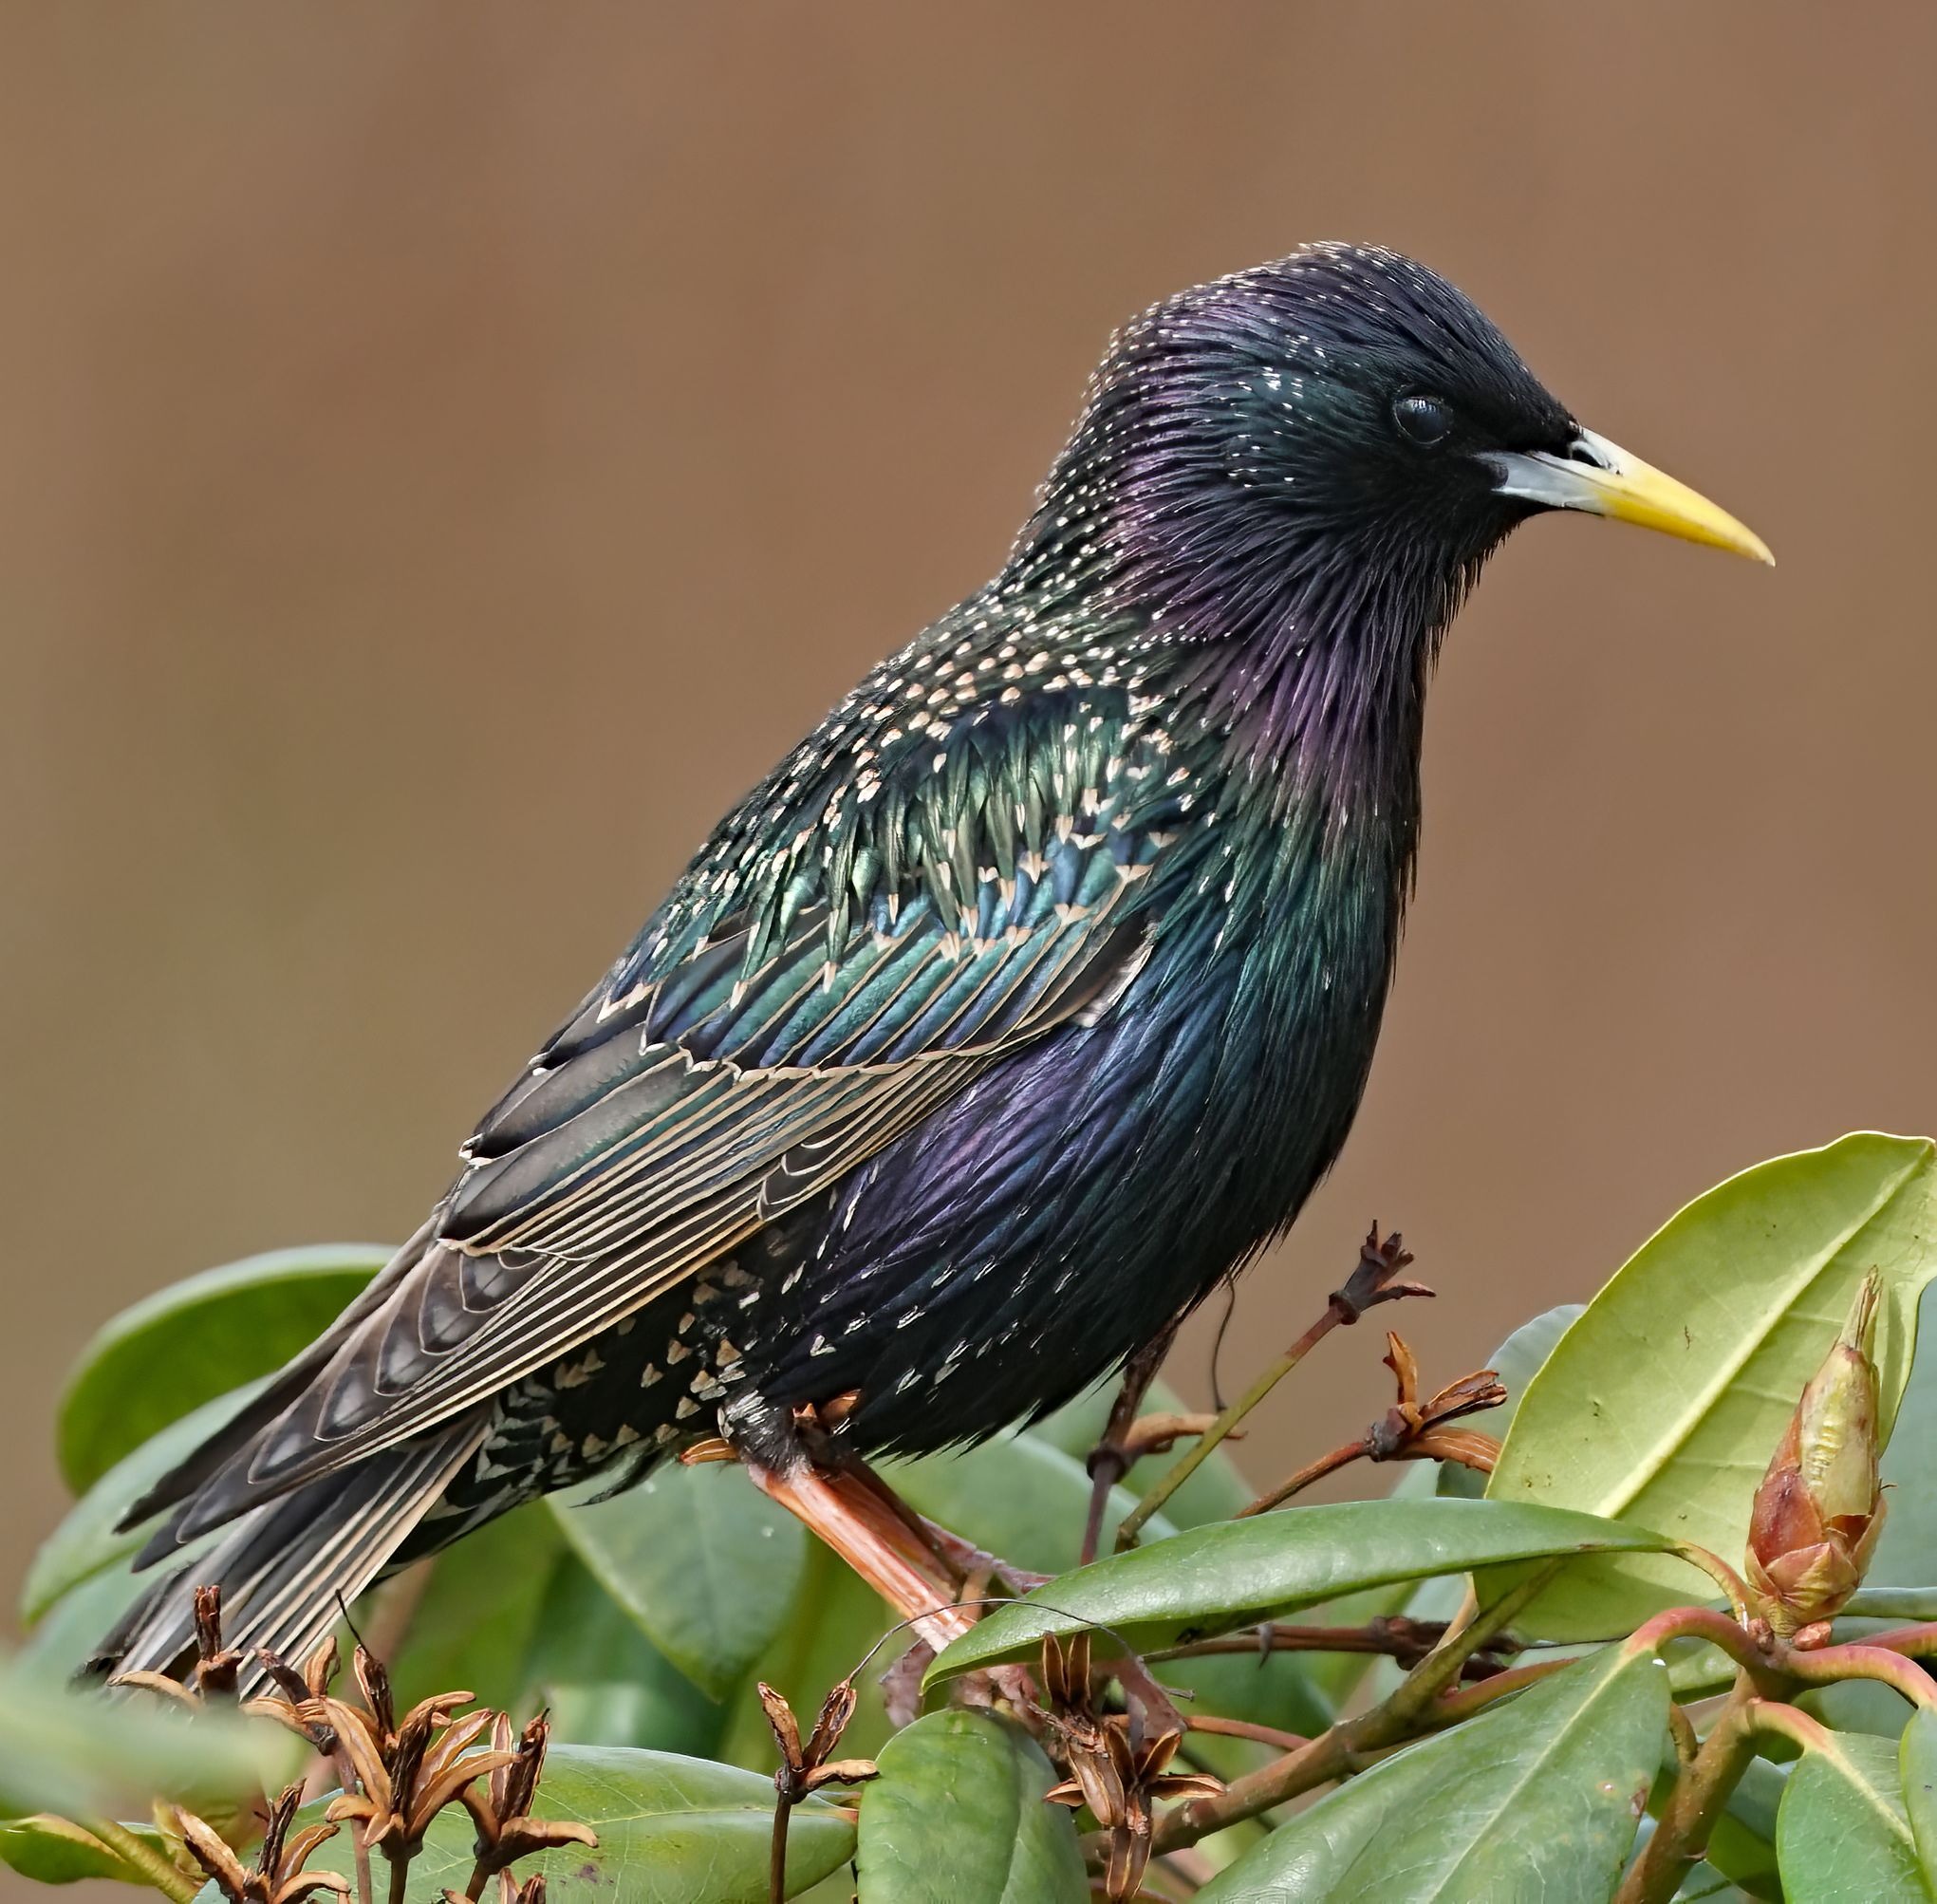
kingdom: Animalia
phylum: Chordata
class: Aves
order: Passeriformes
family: Sturnidae
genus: Sturnus
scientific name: Sturnus vulgaris
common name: Stær
